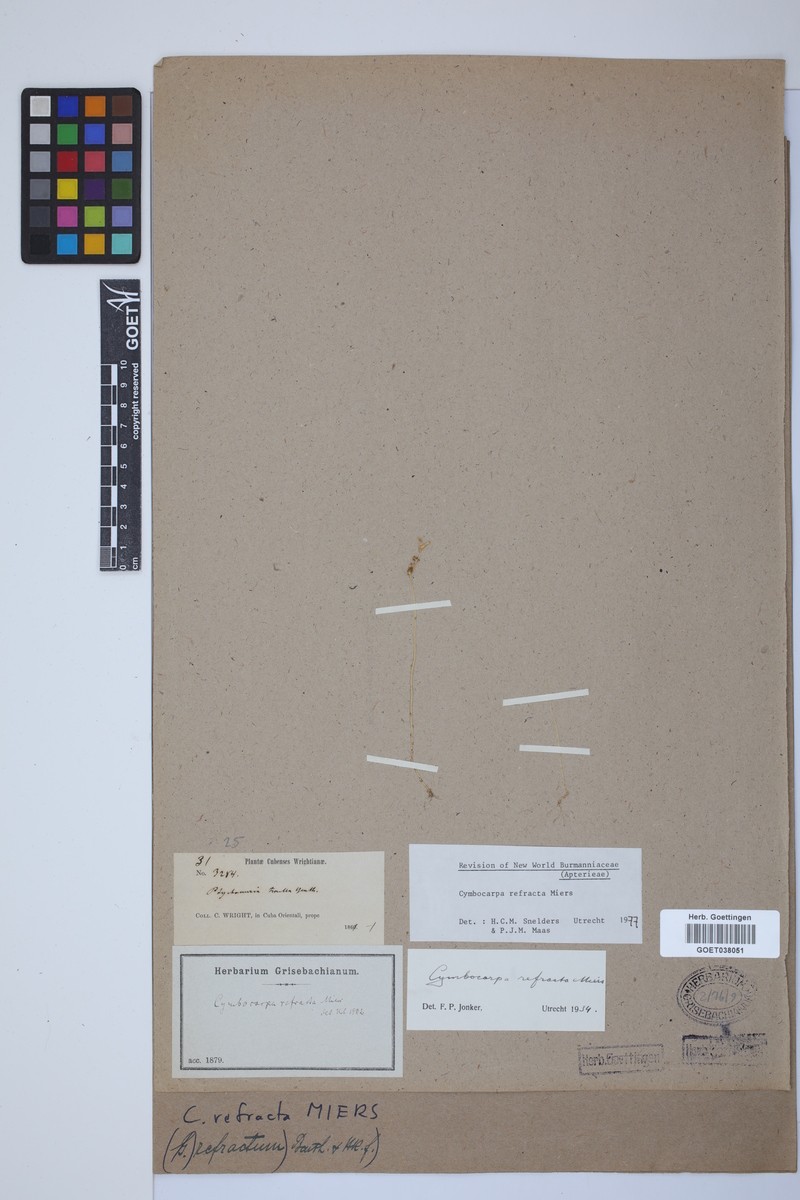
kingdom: Plantae
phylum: Tracheophyta
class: Liliopsida
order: Dioscoreales
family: Burmanniaceae
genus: Gymnosiphon
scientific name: Gymnosiphon refractus
